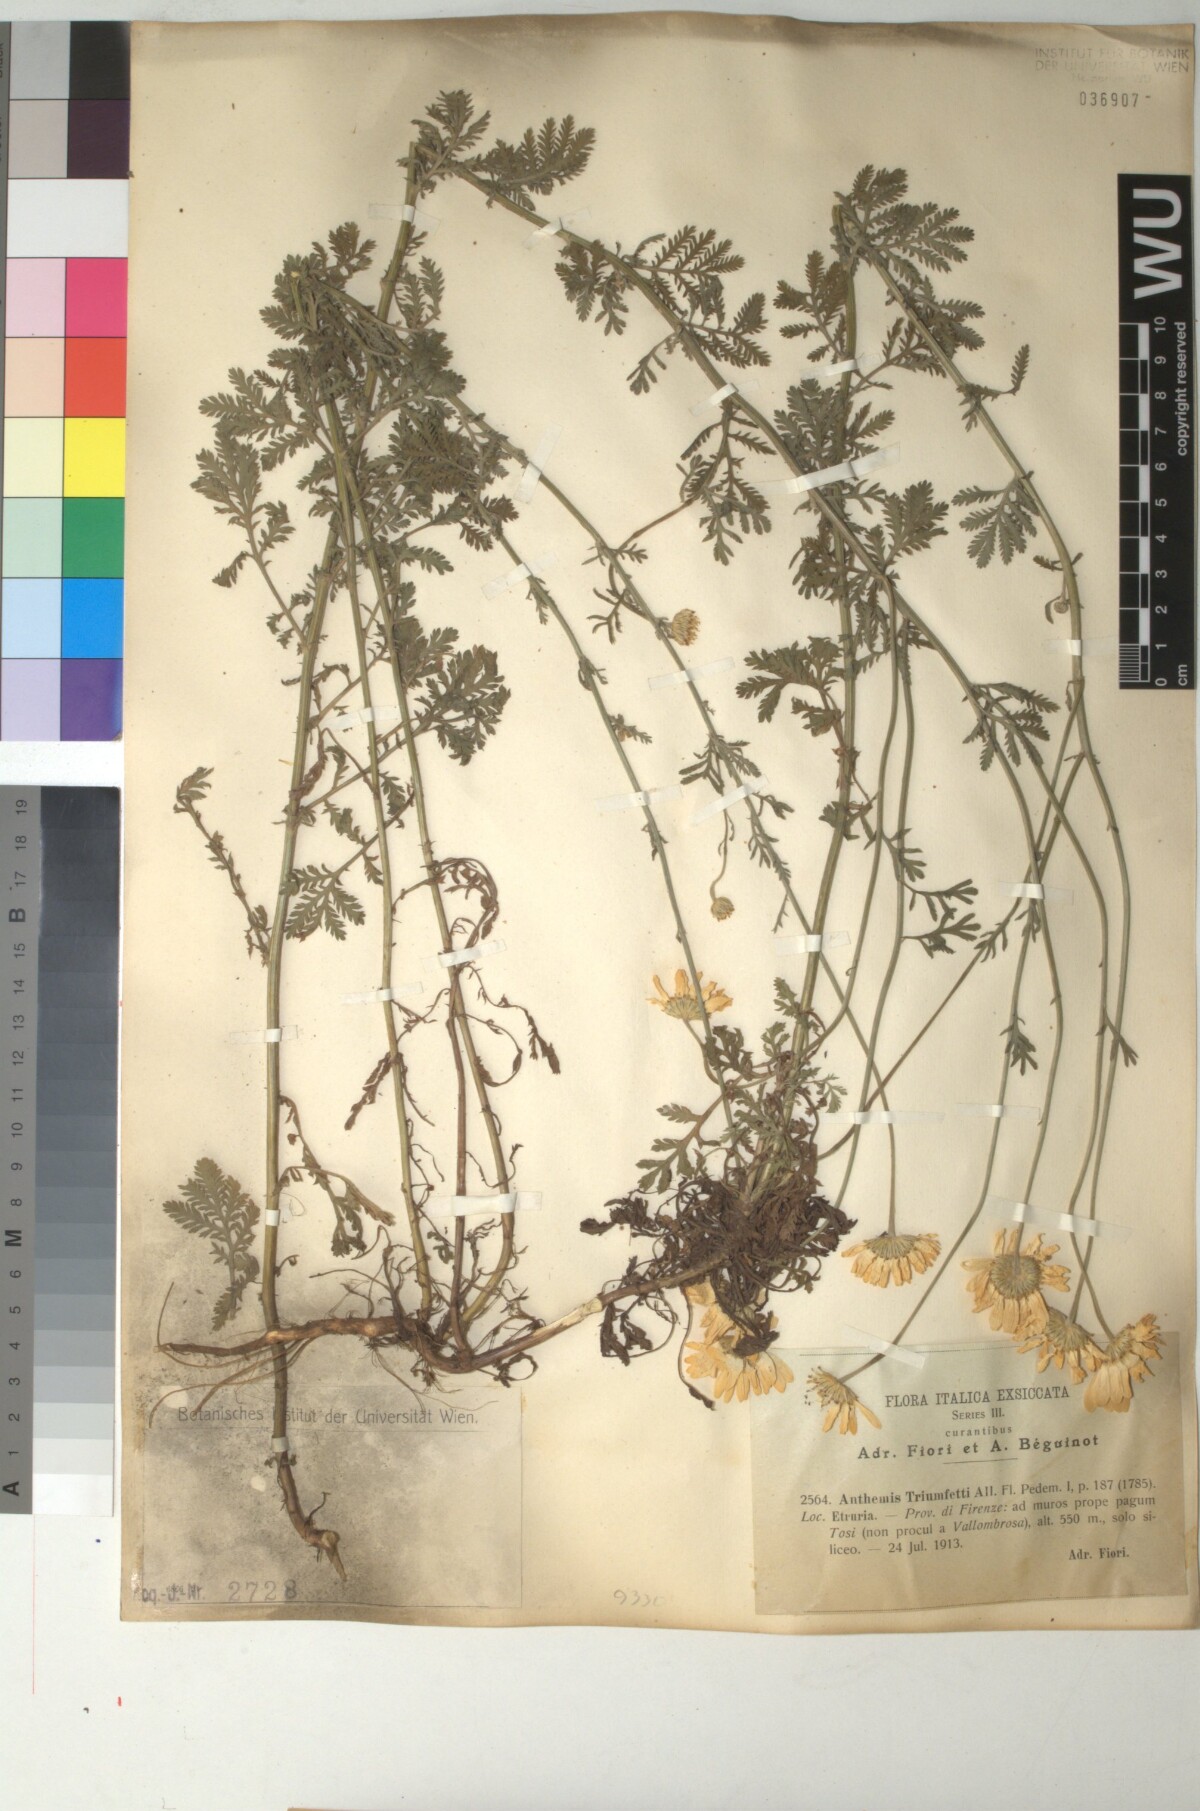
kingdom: Plantae
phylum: Tracheophyta
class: Magnoliopsida
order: Asterales
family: Asteraceae
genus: Cota
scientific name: Cota triumfetti
